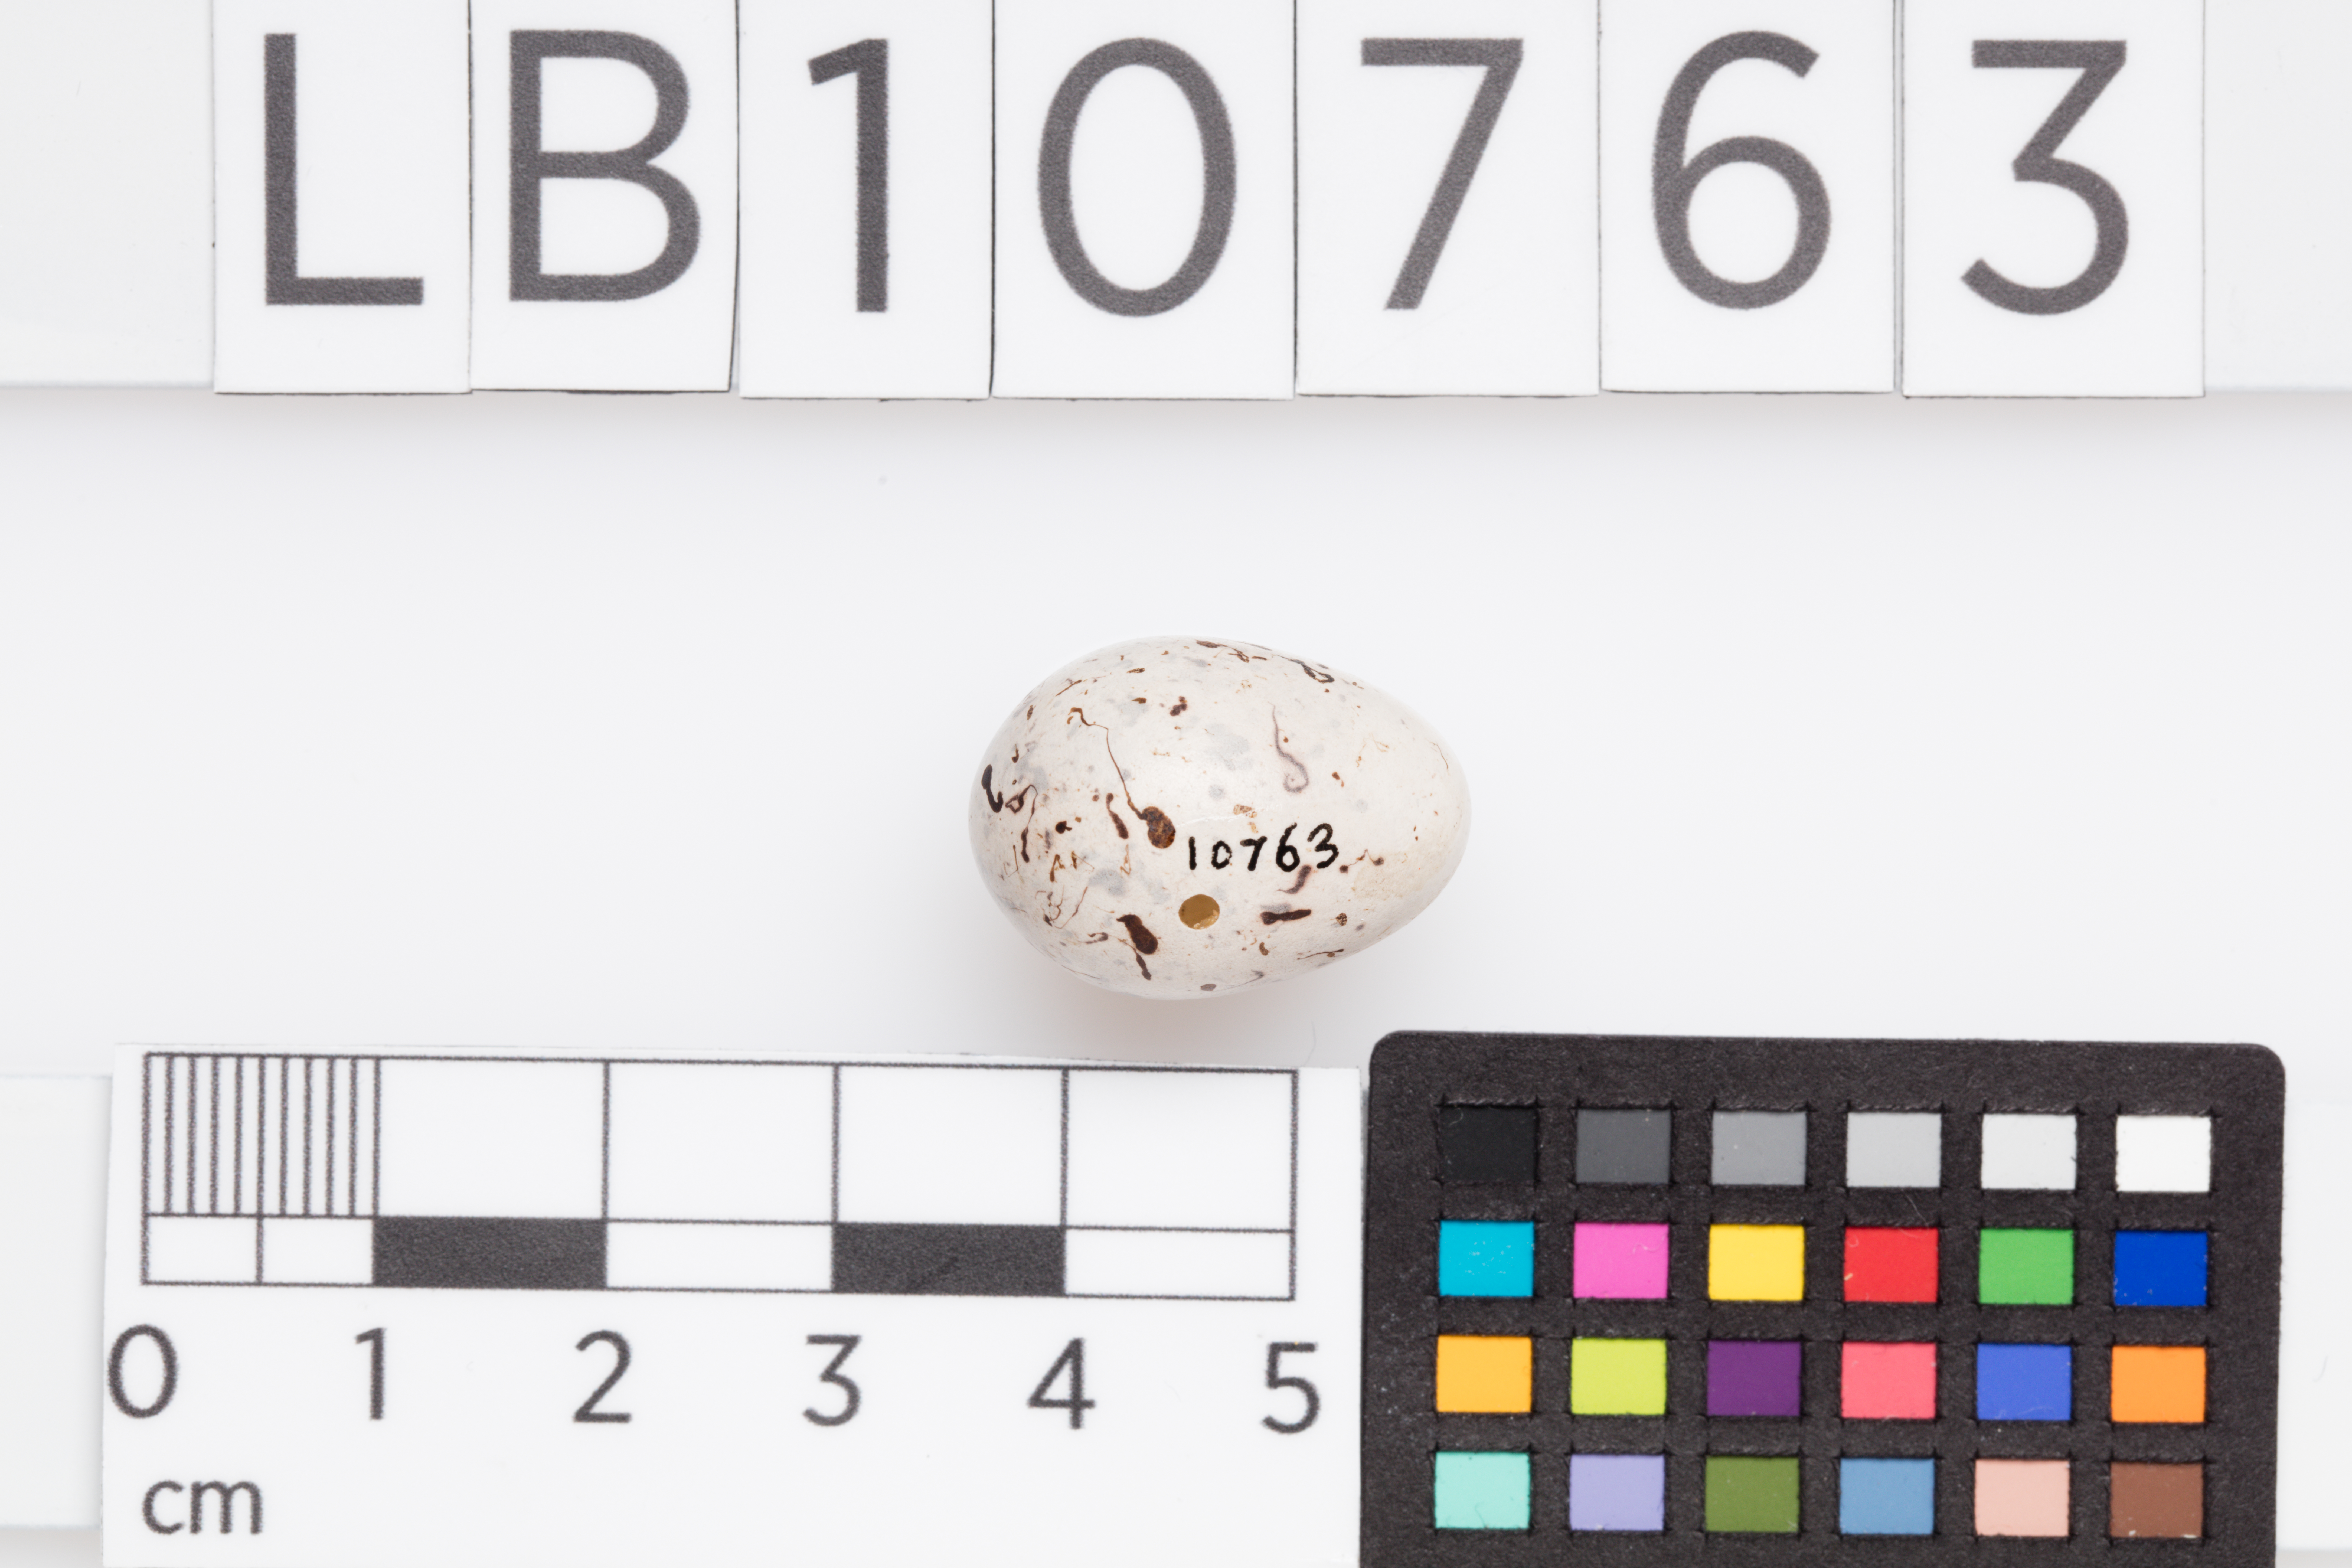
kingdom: Animalia
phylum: Chordata
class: Aves
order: Passeriformes
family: Emberizidae
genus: Emberiza
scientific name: Emberiza citrinella
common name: Yellowhammer
